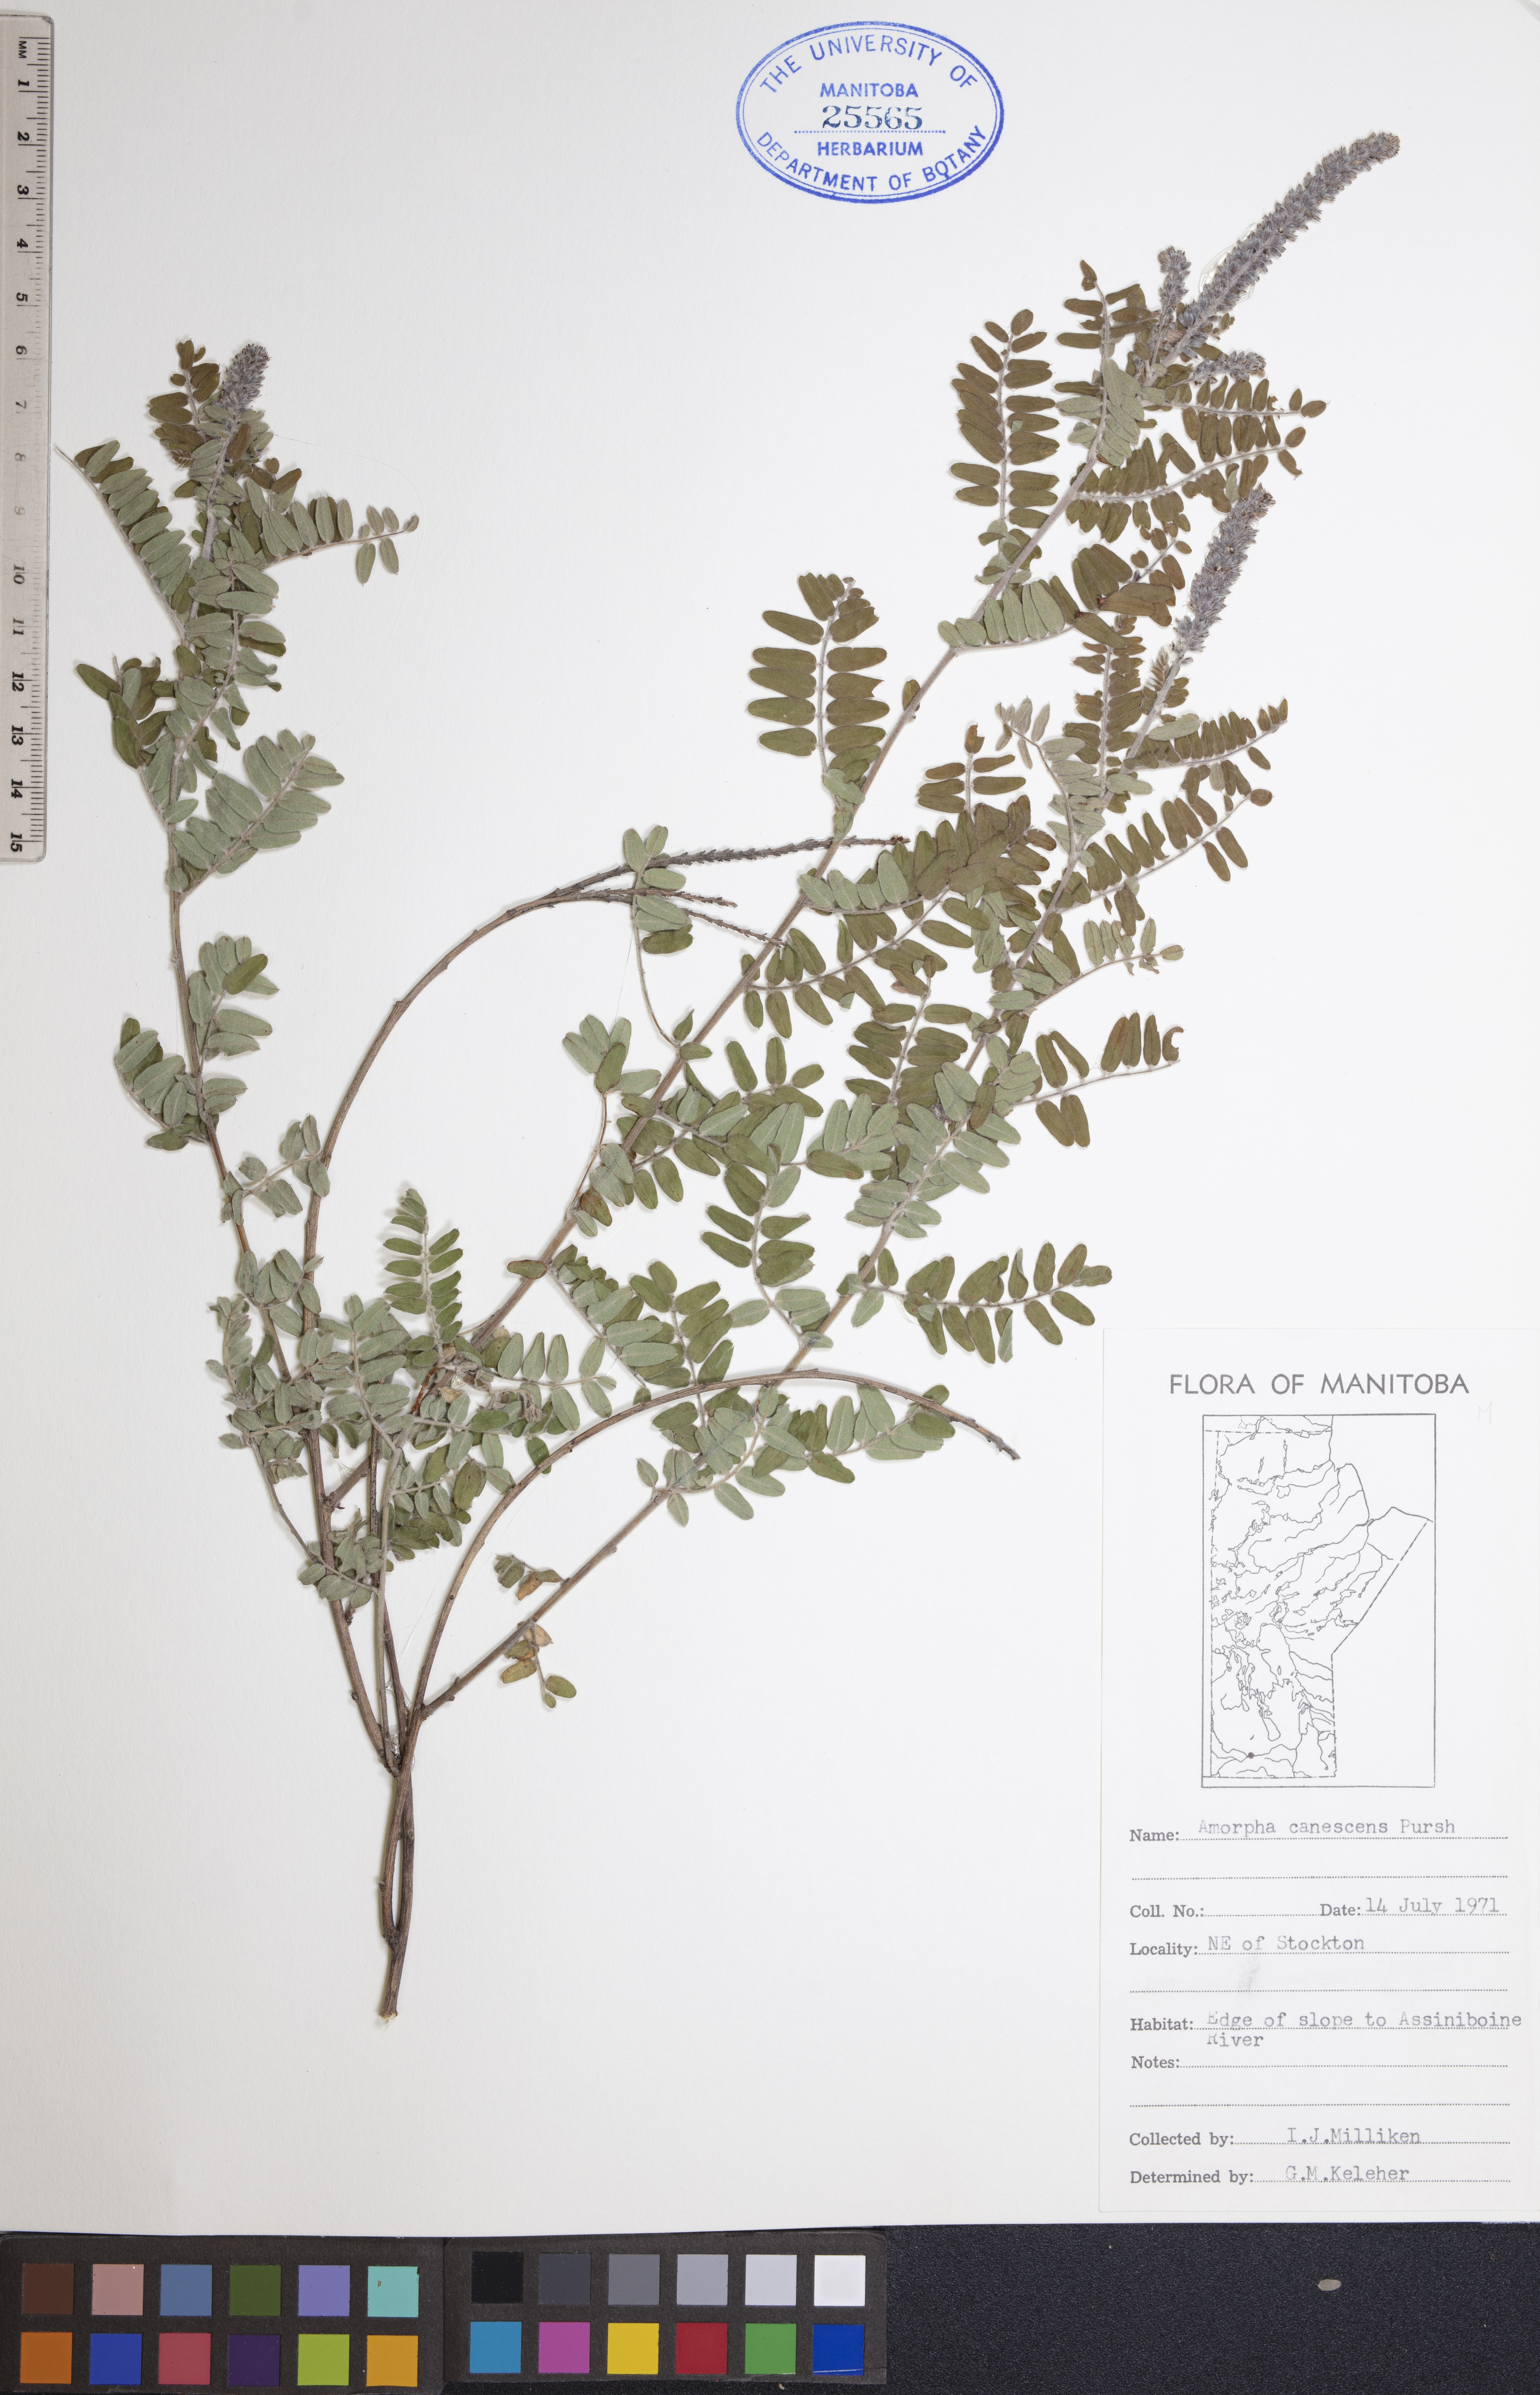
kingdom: Plantae
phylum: Tracheophyta
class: Magnoliopsida
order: Fabales
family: Fabaceae
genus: Amorpha
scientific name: Amorpha canescens
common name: Leadplant
